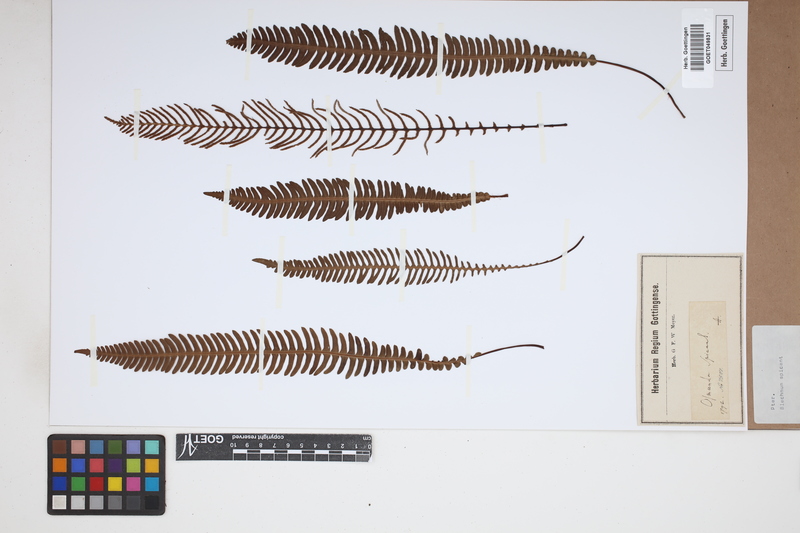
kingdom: Plantae
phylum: Tracheophyta
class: Polypodiopsida
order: Polypodiales
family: Blechnaceae
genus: Struthiopteris
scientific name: Struthiopteris spicant
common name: Deer fern
